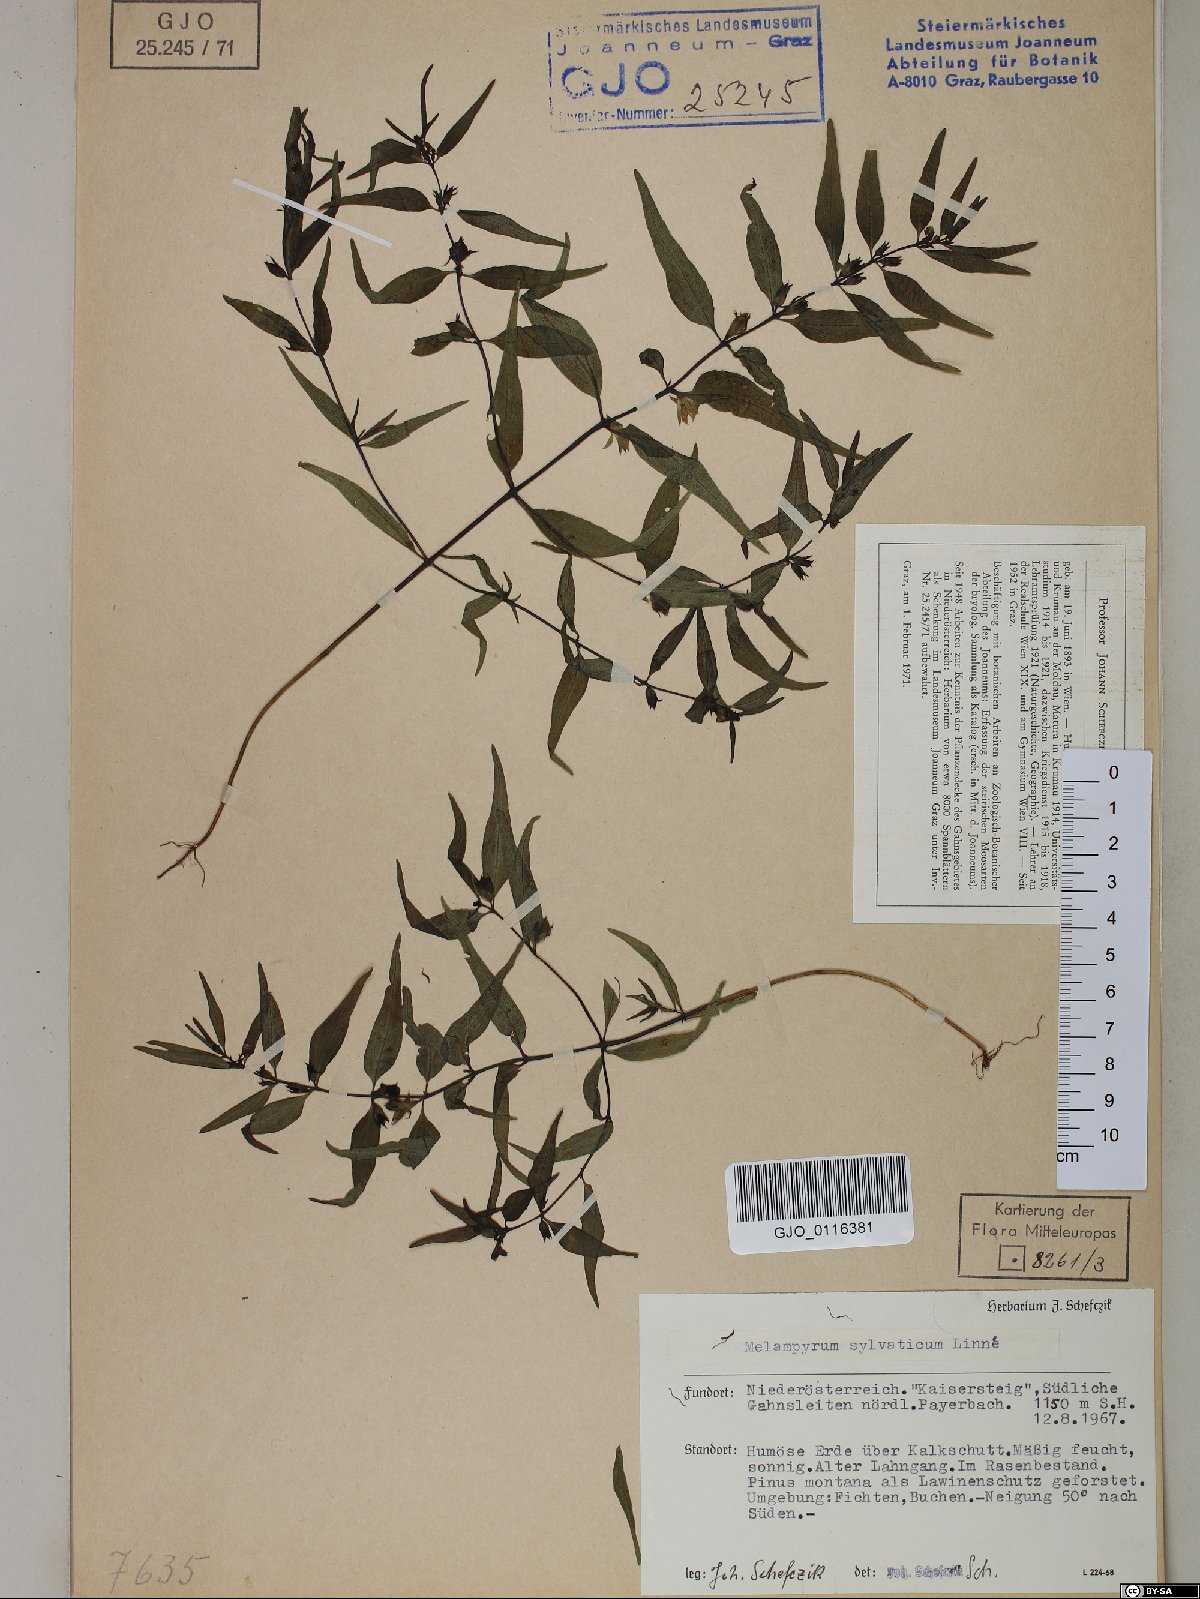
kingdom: Plantae
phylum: Tracheophyta
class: Magnoliopsida
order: Lamiales
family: Orobanchaceae
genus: Melampyrum
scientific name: Melampyrum sylvaticum
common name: Small cow-wheat
